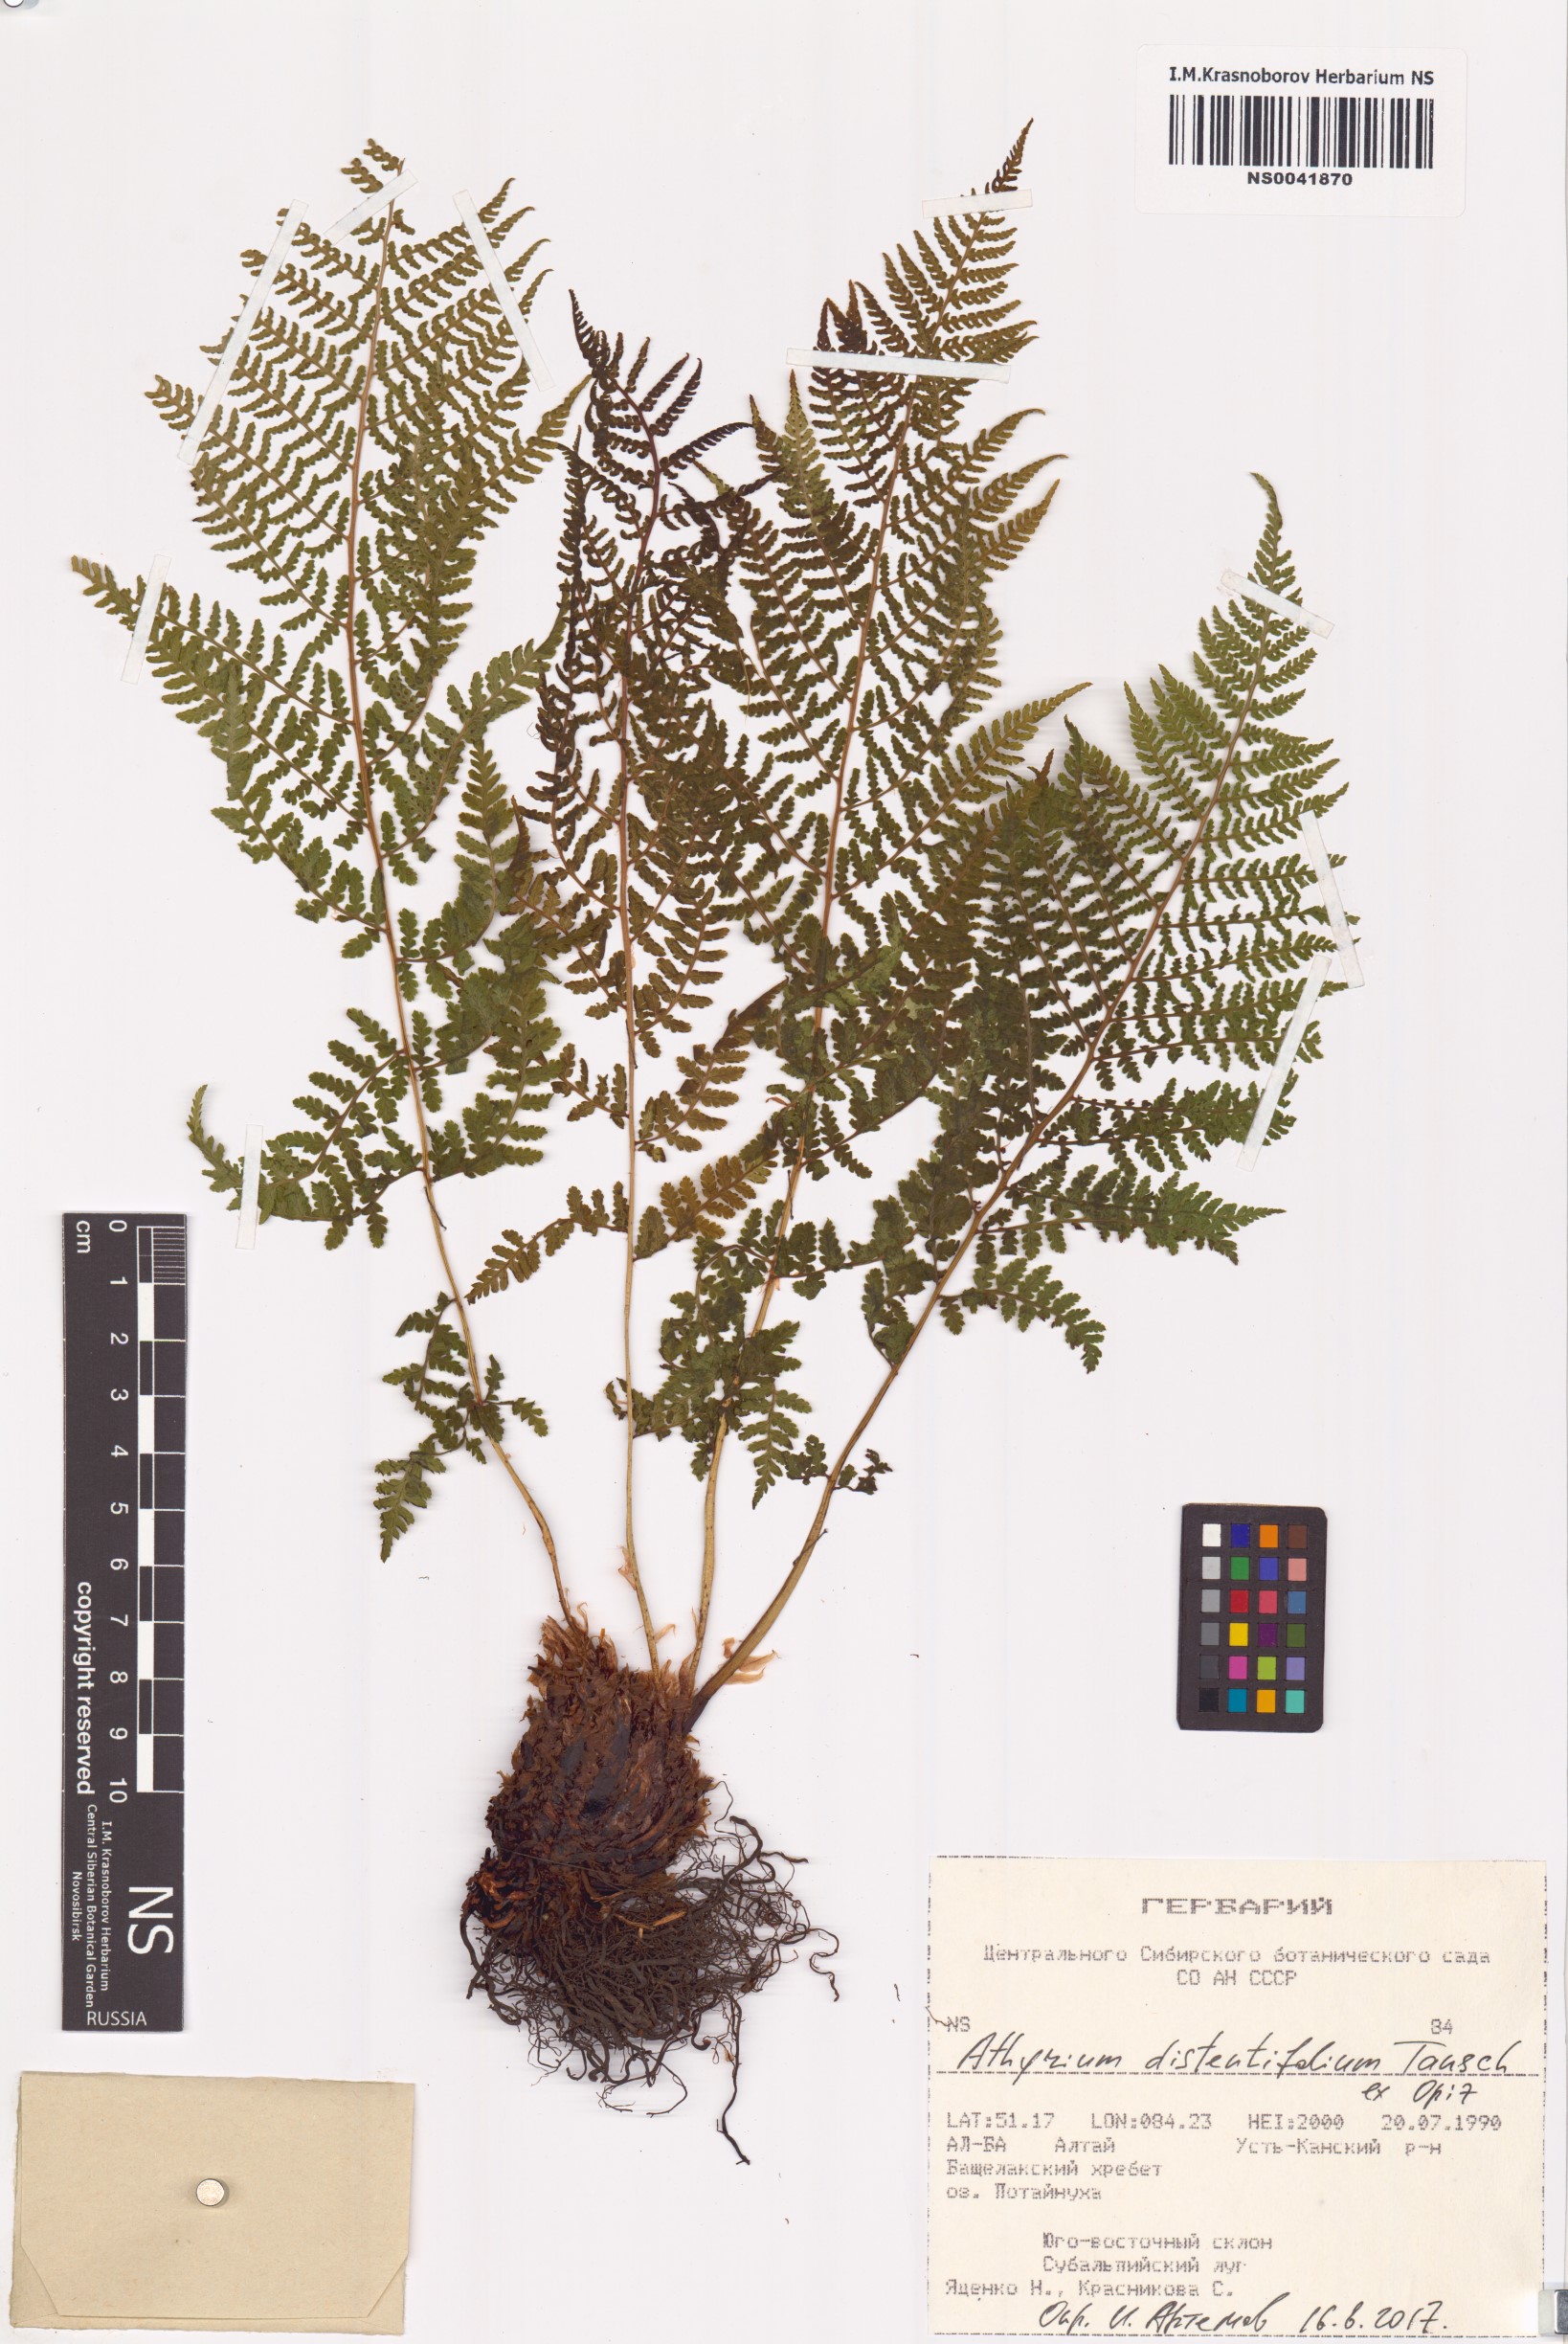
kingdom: Plantae
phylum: Tracheophyta
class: Polypodiopsida
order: Polypodiales
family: Athyriaceae
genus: Pseudathyrium
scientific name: Pseudathyrium alpestre
